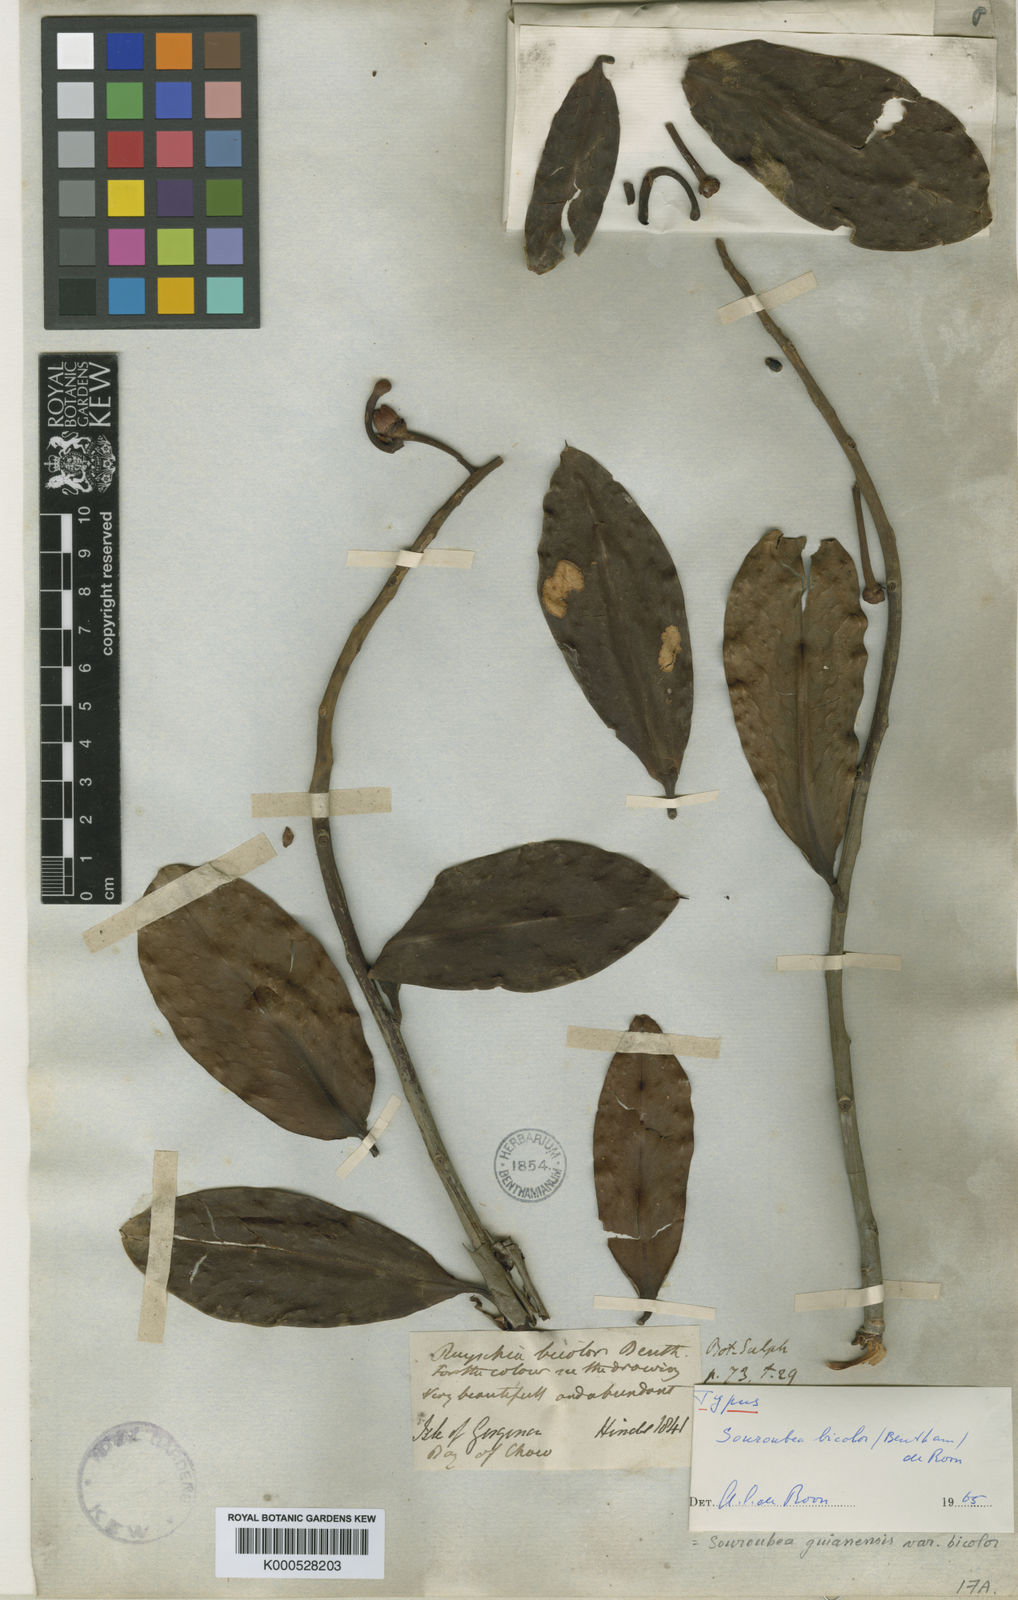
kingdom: Plantae
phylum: Tracheophyta
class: Magnoliopsida
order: Ericales
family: Marcgraviaceae
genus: Souroubea
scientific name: Souroubea bicolor
